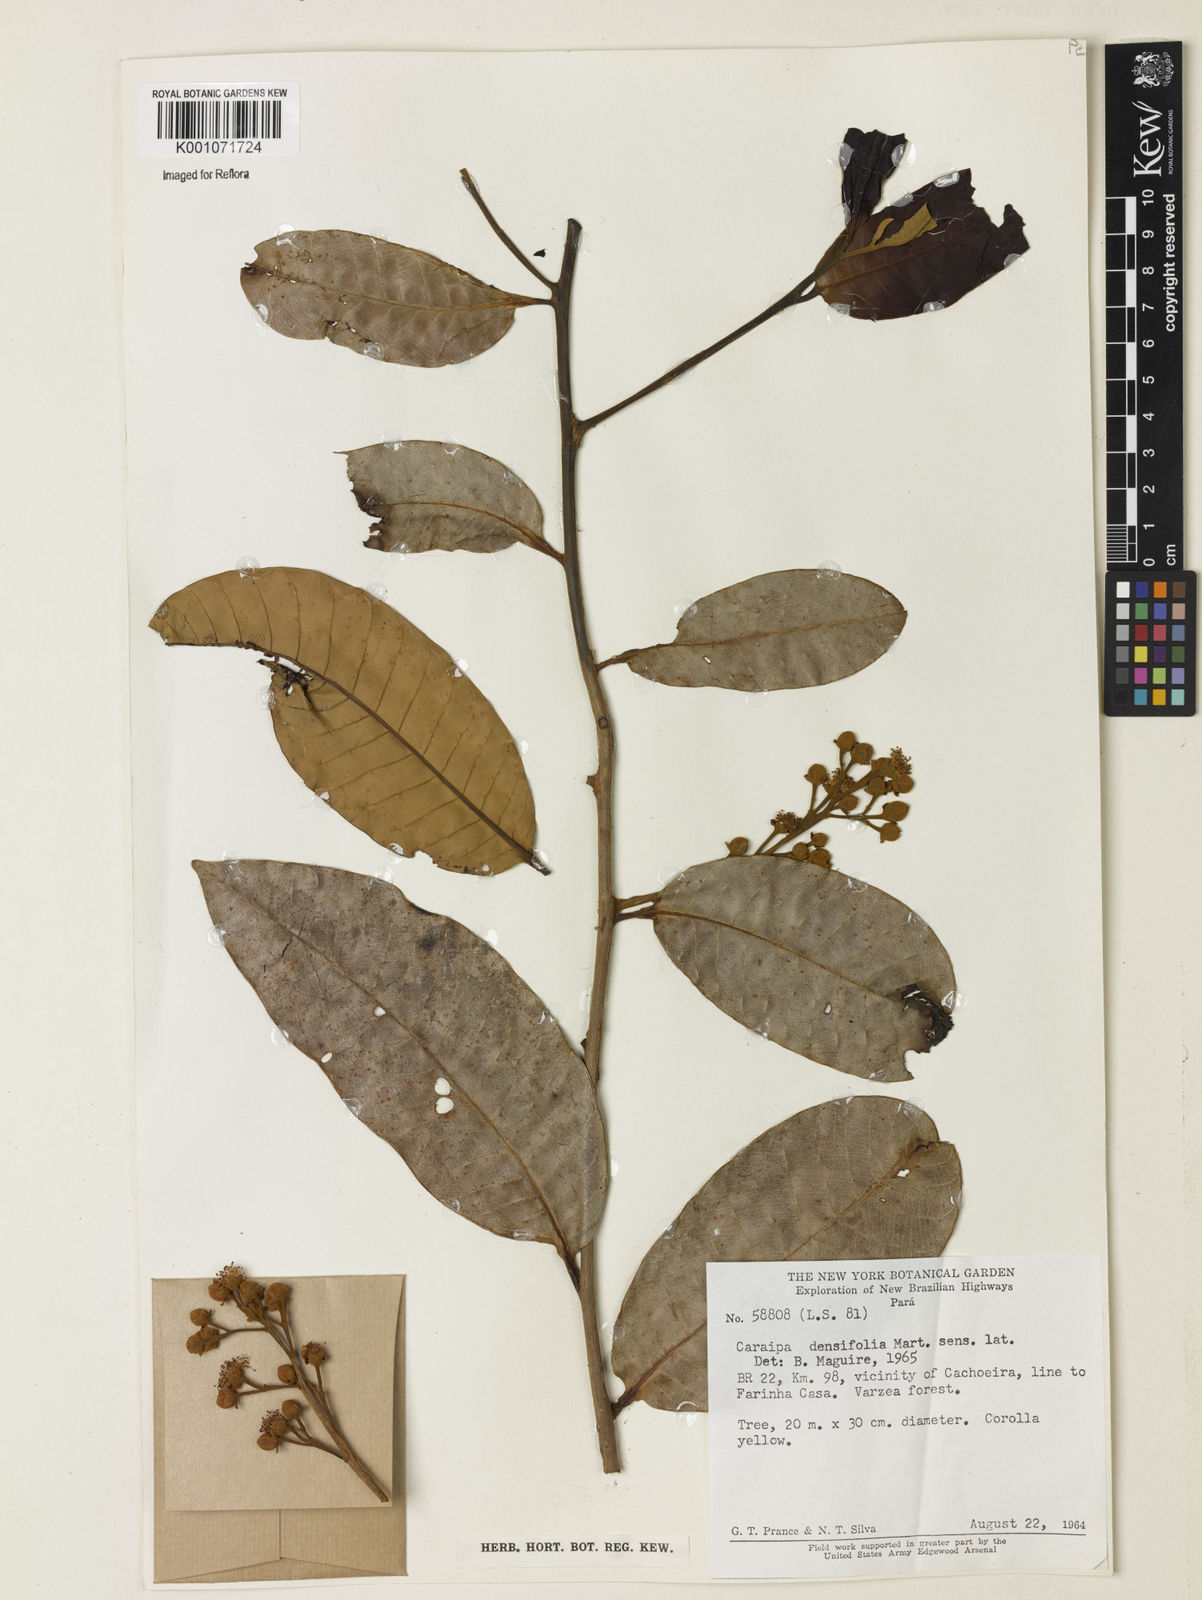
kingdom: Plantae
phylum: Tracheophyta
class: Magnoliopsida
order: Malpighiales
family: Calophyllaceae
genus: Caraipa
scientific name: Caraipa densifolia
